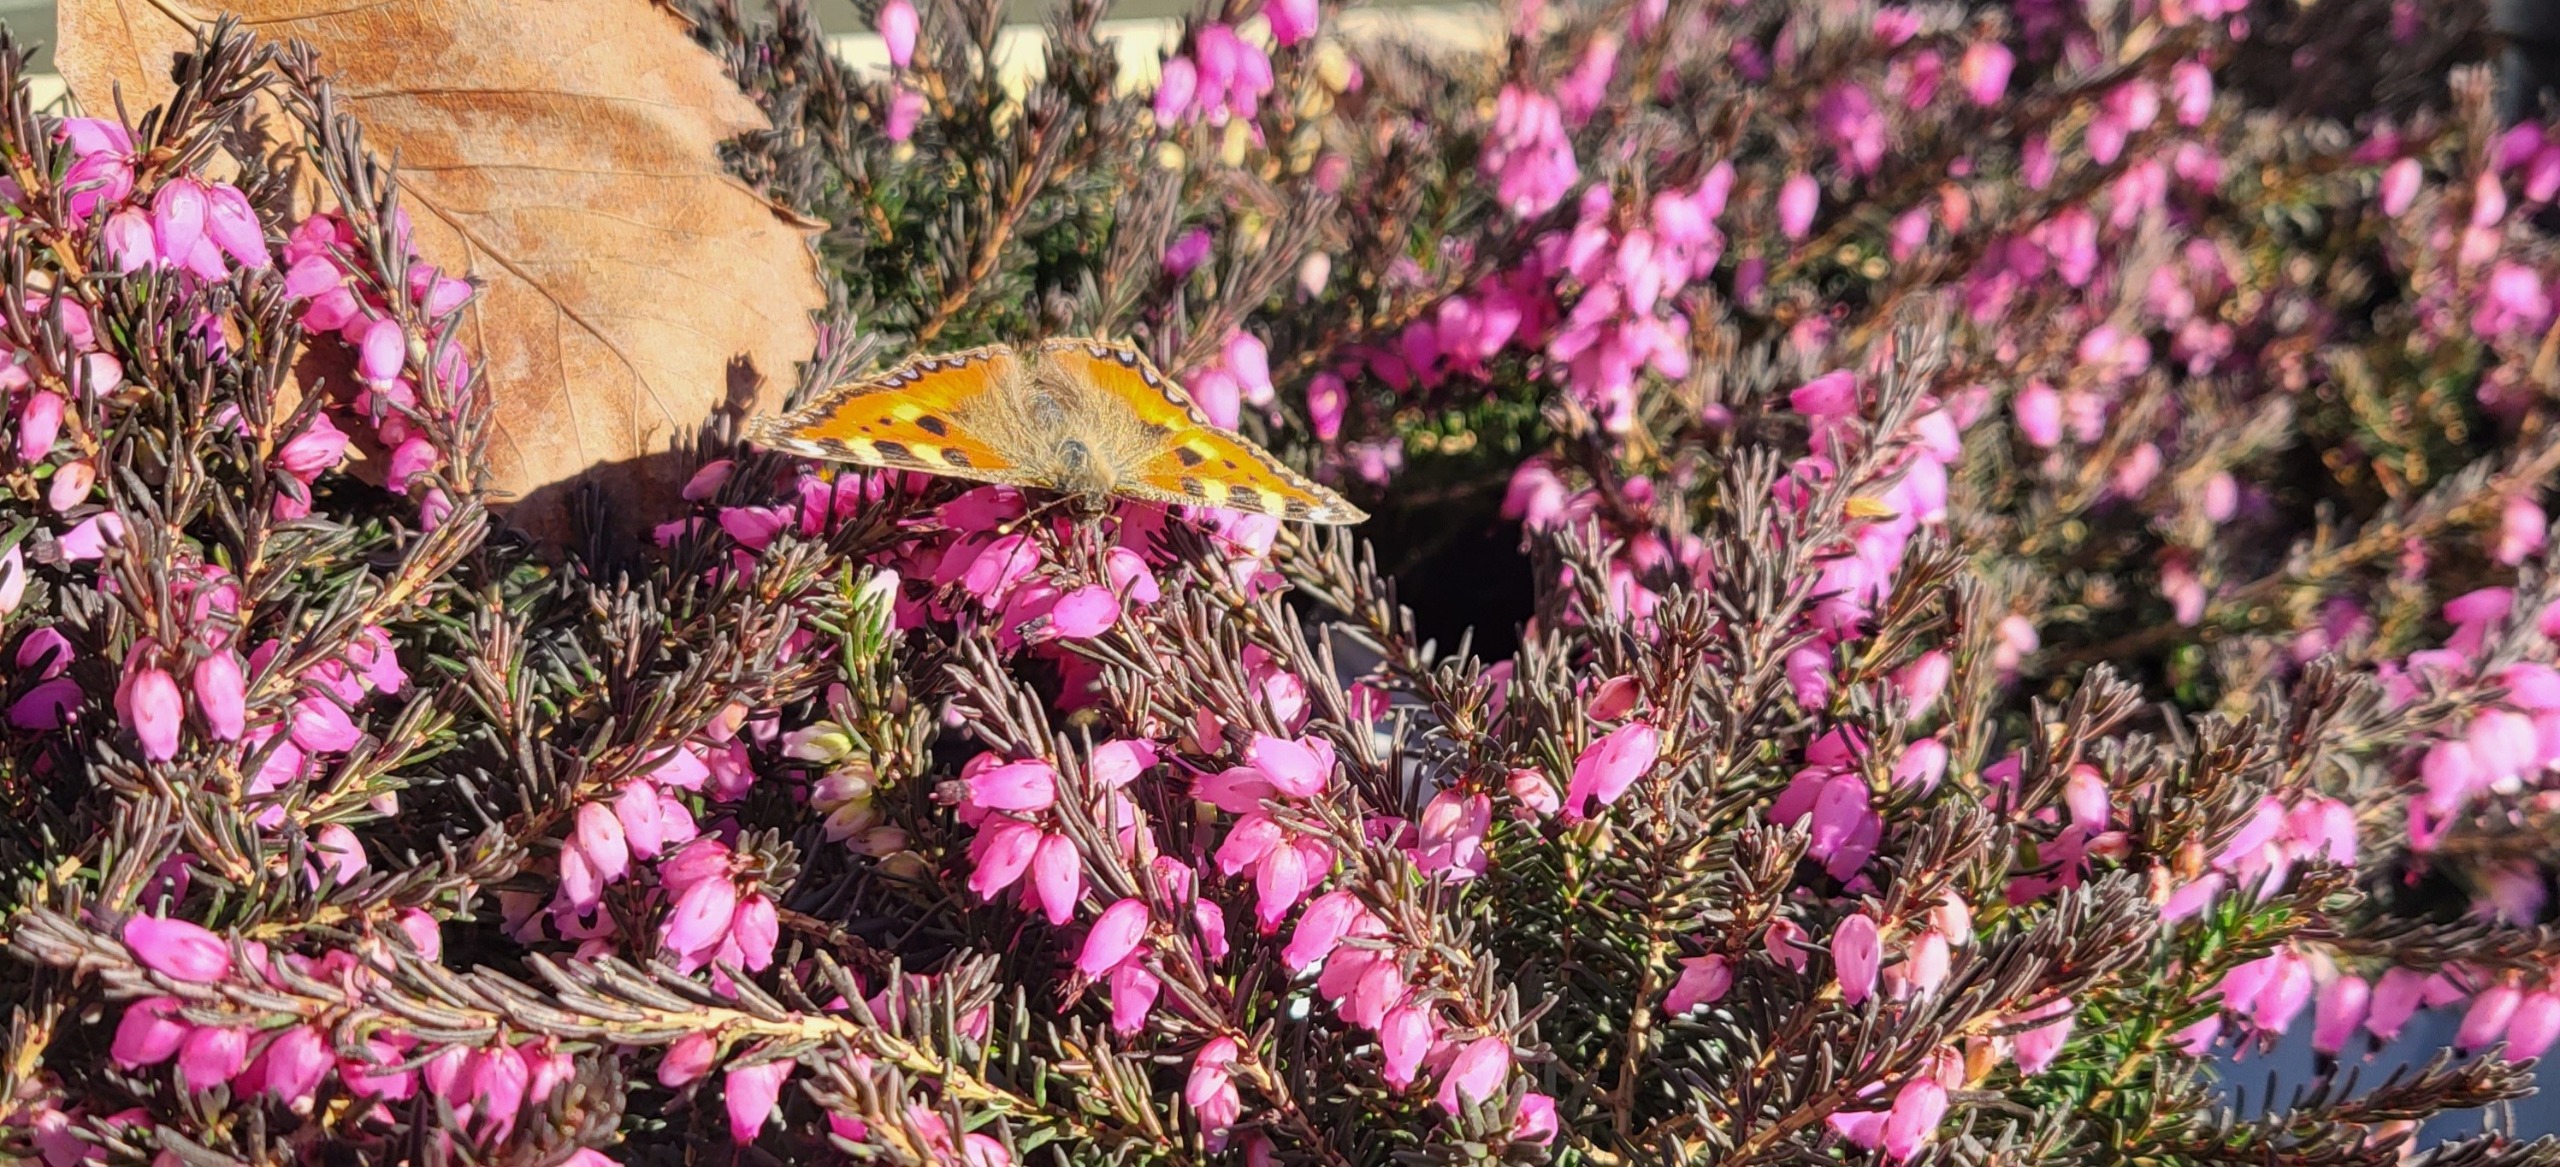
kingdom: Animalia
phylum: Arthropoda
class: Insecta
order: Lepidoptera
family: Nymphalidae
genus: Aglais
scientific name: Aglais urticae
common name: Nældens takvinge
